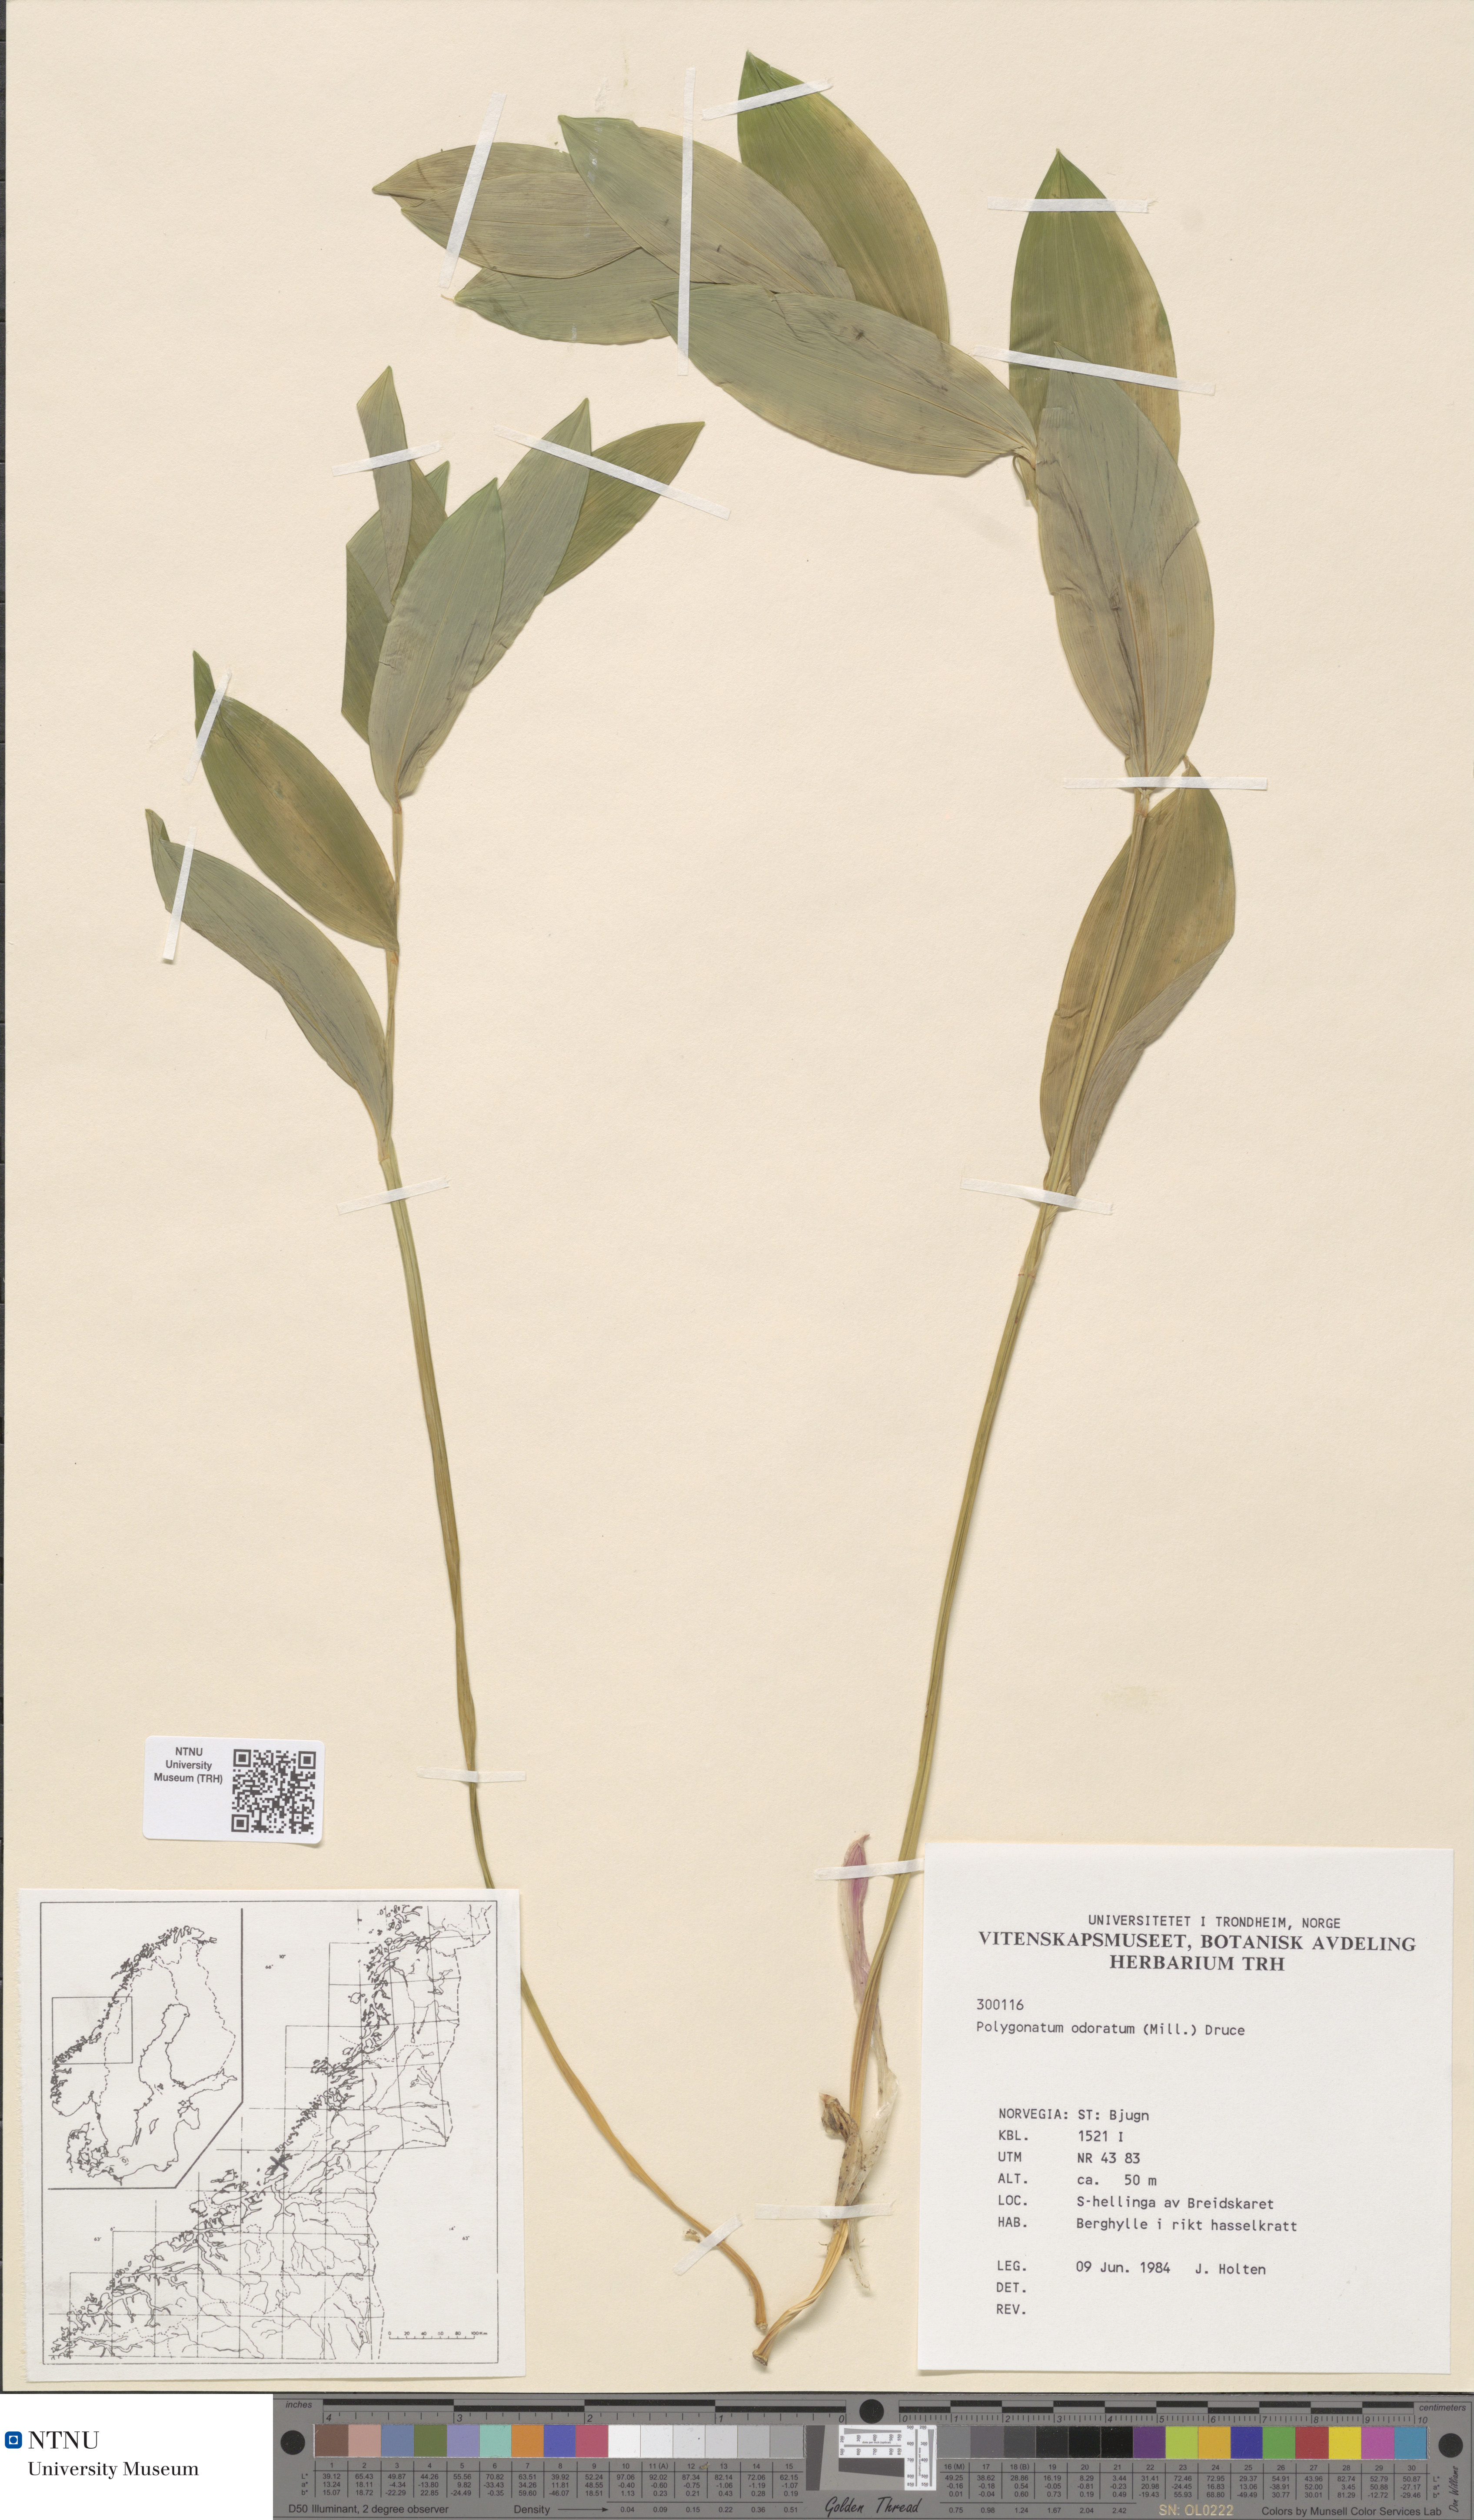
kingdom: Plantae
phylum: Tracheophyta
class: Liliopsida
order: Asparagales
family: Asparagaceae
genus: Polygonatum
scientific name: Polygonatum odoratum
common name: Angular solomon's-seal
